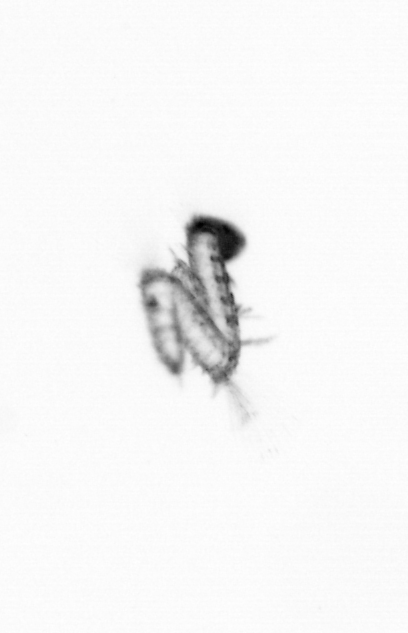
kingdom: Animalia
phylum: Annelida
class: Polychaeta
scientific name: Polychaeta
